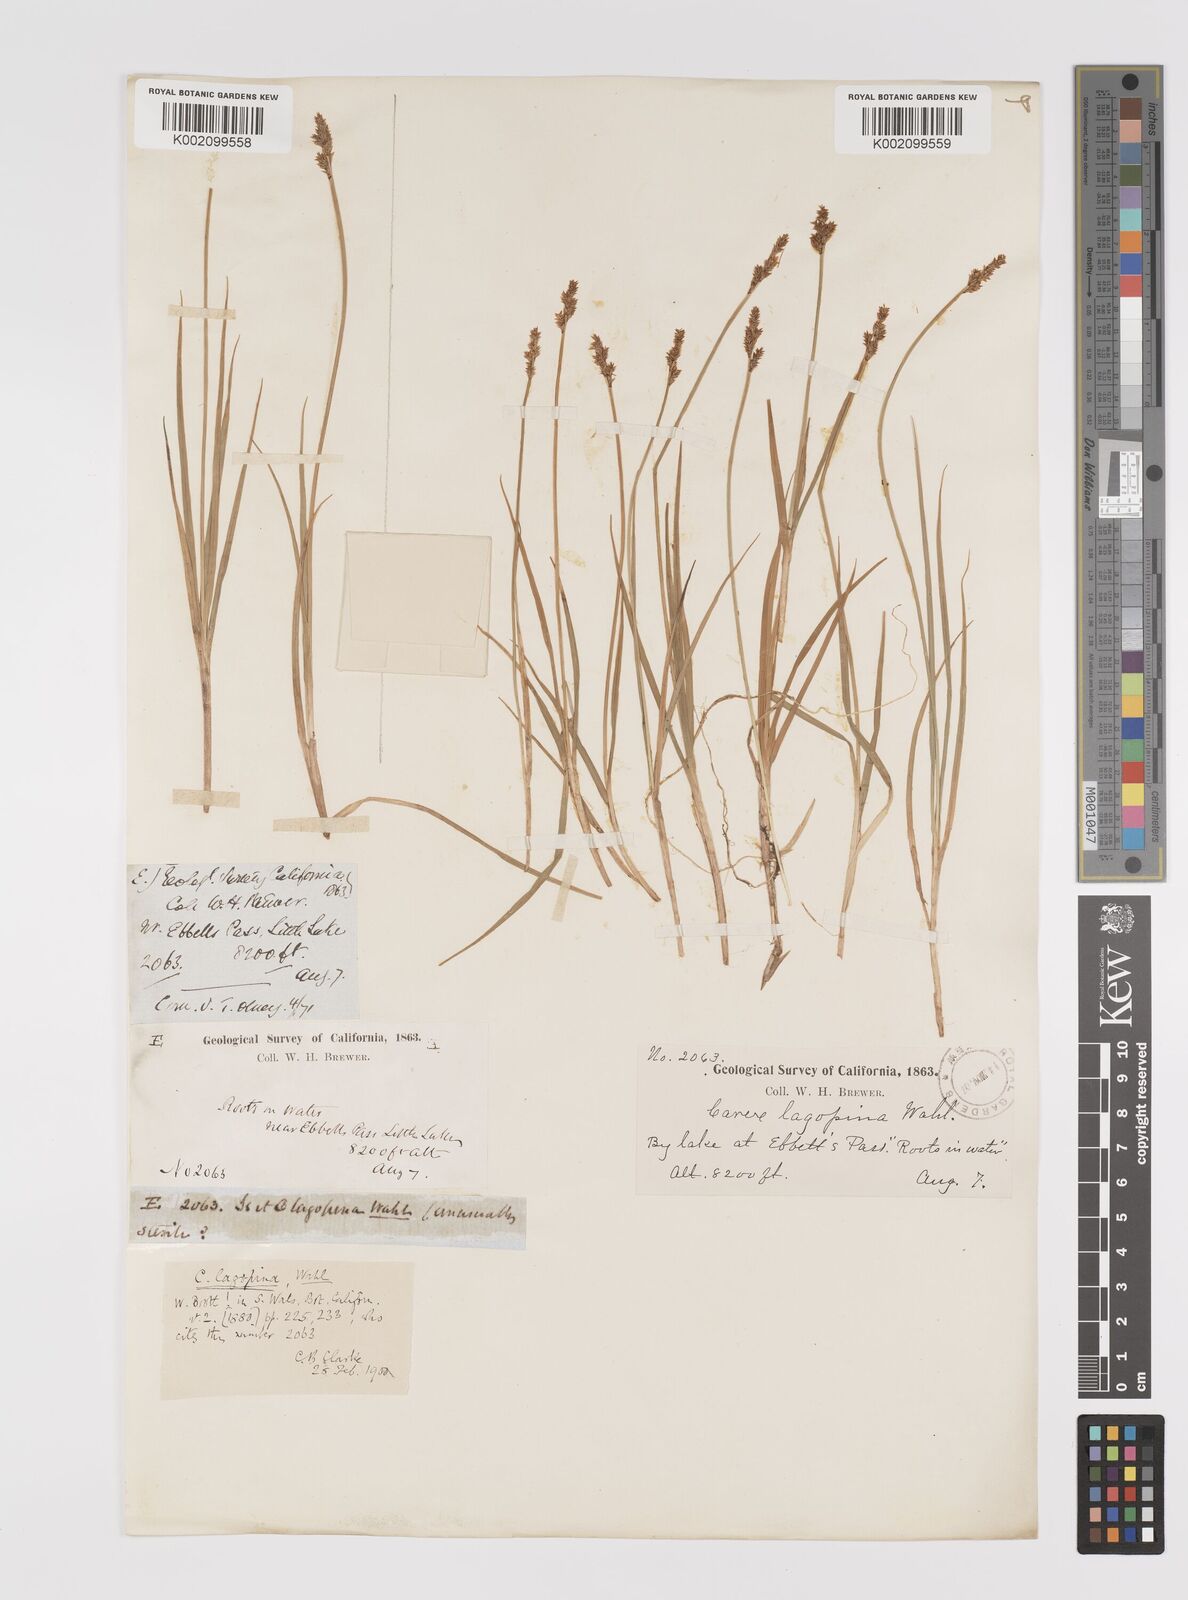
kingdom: Plantae
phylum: Tracheophyta
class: Liliopsida
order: Poales
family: Cyperaceae
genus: Carex
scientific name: Carex lachenalii
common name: Hare's-foot sedge
